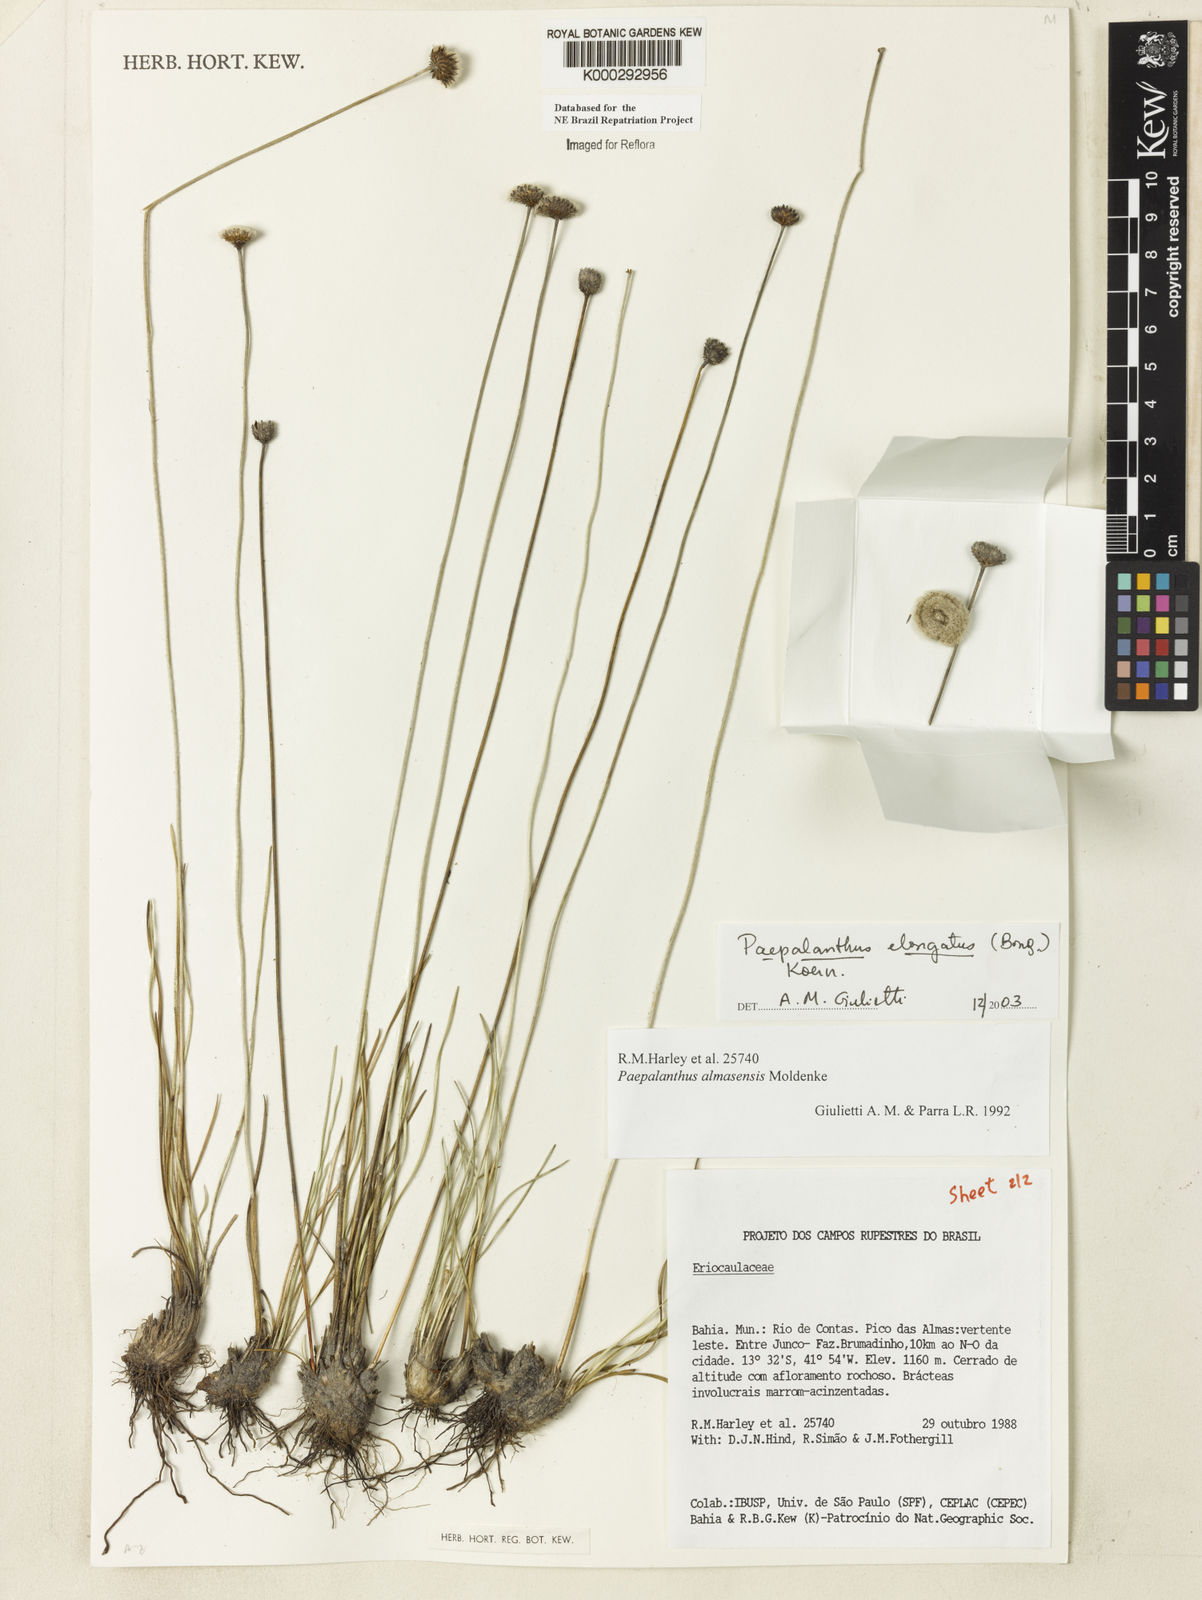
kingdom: Plantae
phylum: Tracheophyta
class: Liliopsida
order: Poales
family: Eriocaulaceae
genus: Paepalanthus
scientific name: Paepalanthus
